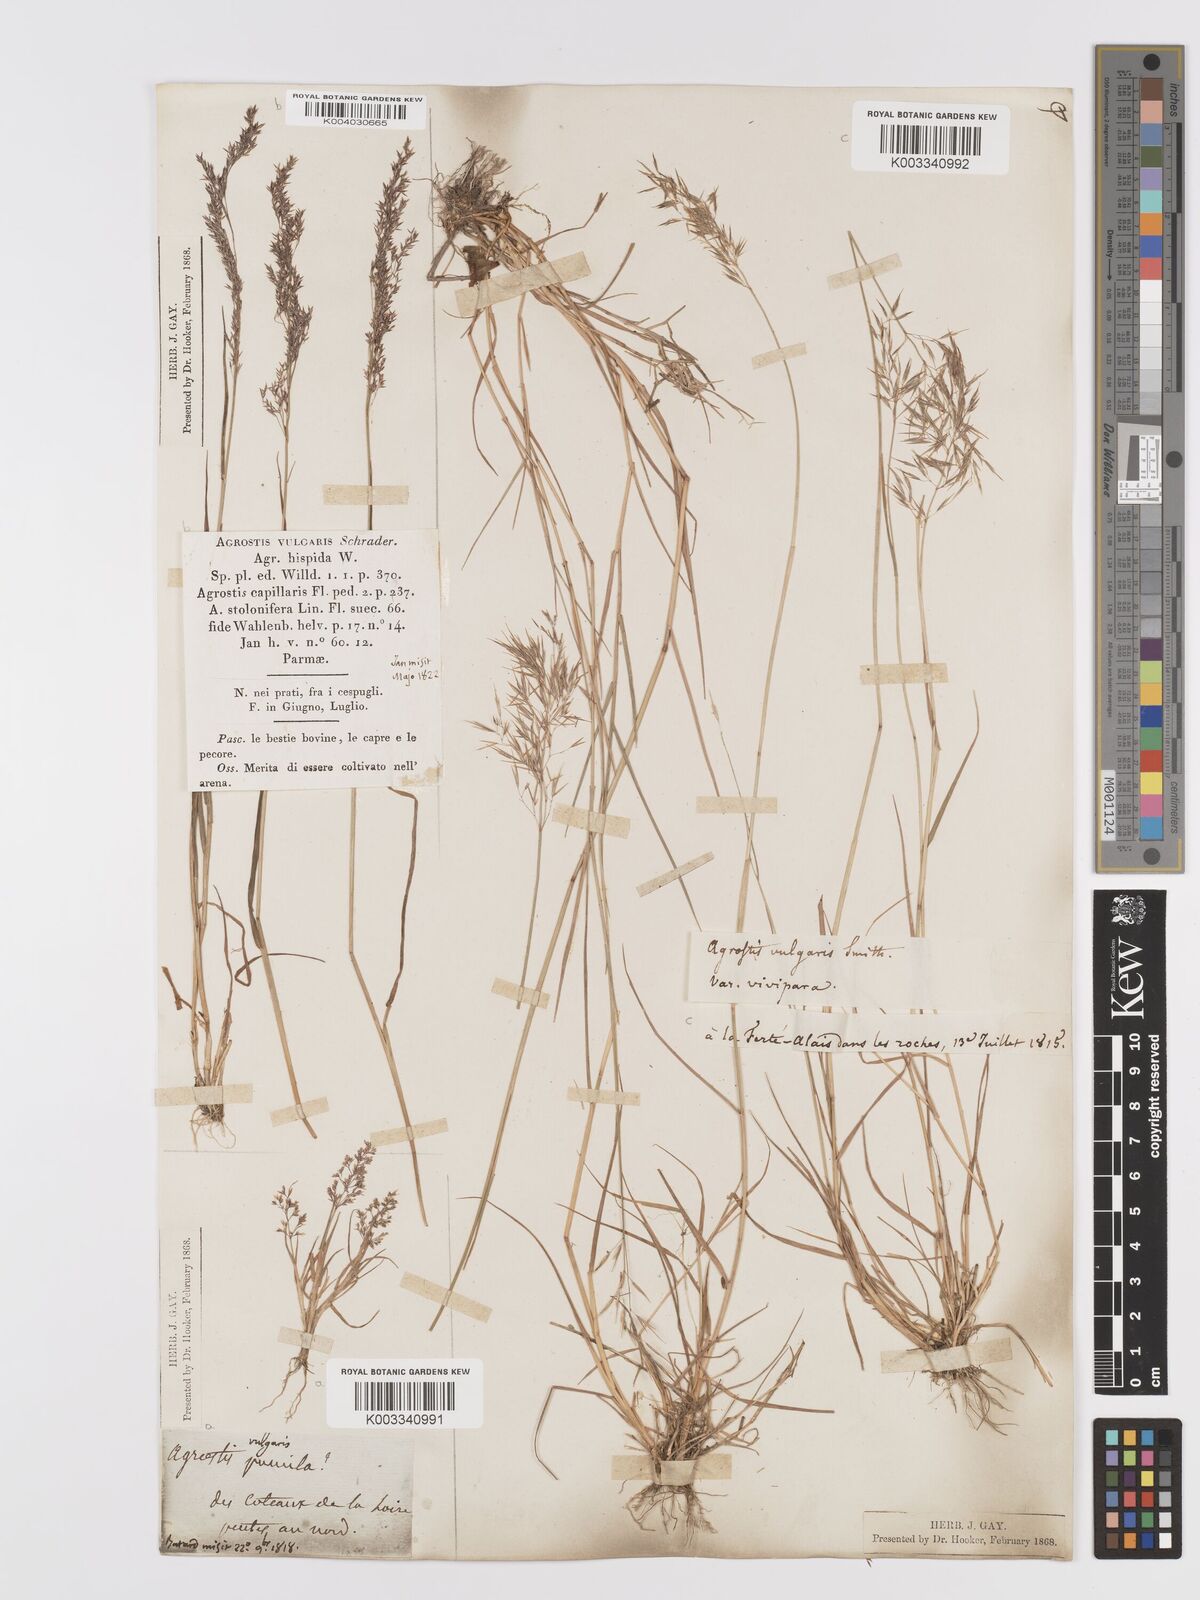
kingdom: Plantae
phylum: Tracheophyta
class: Liliopsida
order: Poales
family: Poaceae
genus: Agrostis
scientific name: Agrostis capillaris
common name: Colonial bentgrass
